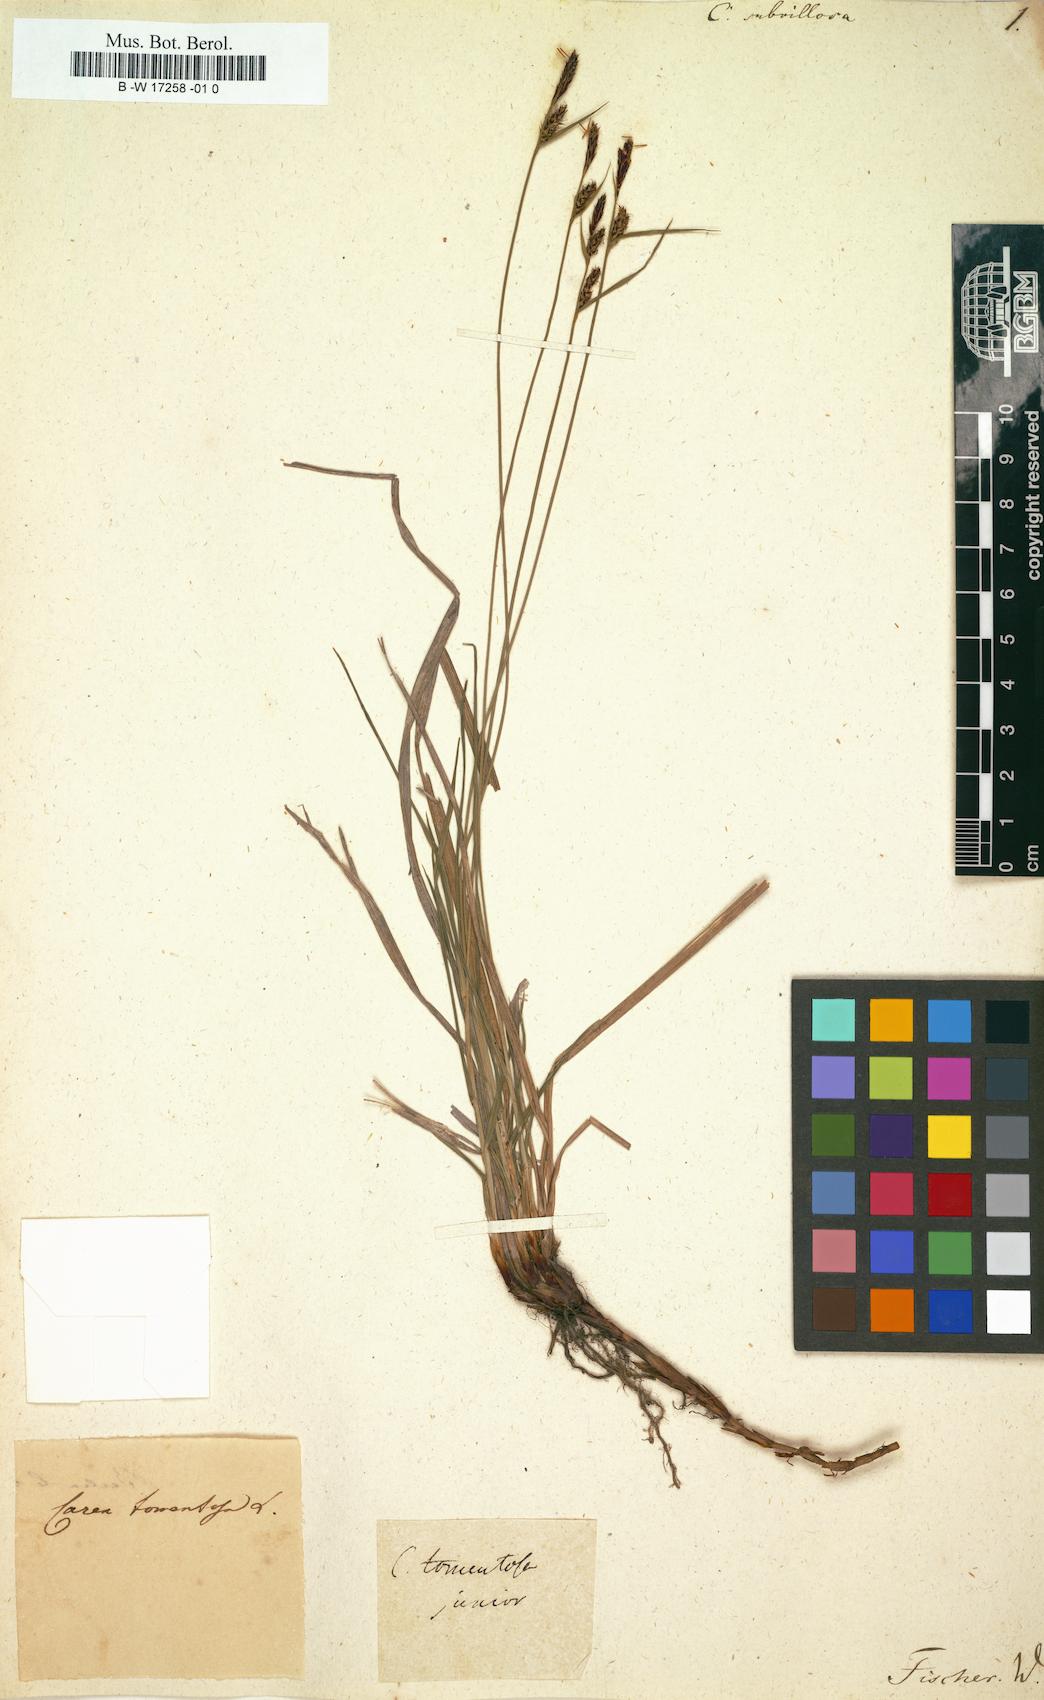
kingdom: Plantae
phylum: Tracheophyta
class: Liliopsida
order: Poales
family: Cyperaceae
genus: Carex
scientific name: Carex tomentosa
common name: Downy-fruited sedge
